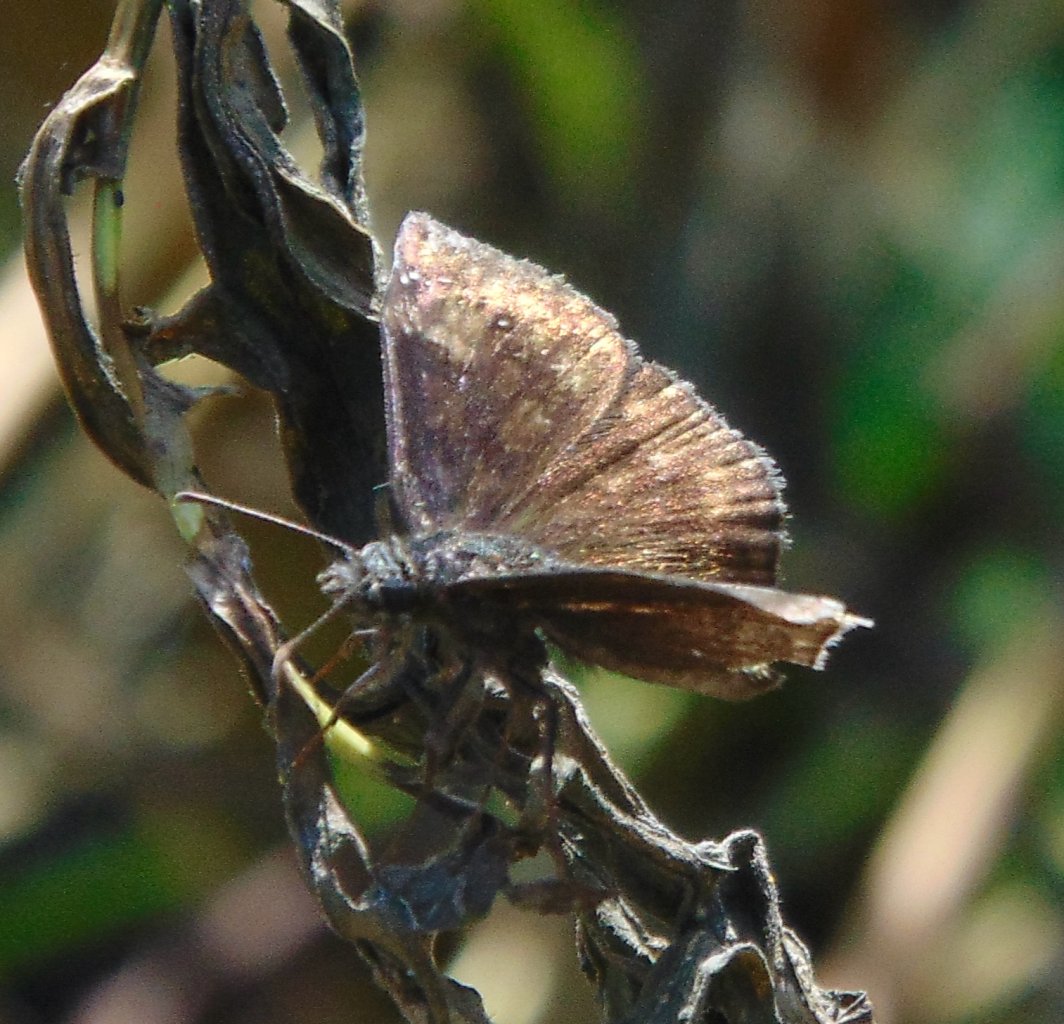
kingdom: Animalia
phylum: Arthropoda
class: Insecta
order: Lepidoptera
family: Hesperiidae
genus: Gesta
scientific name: Gesta
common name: Wild Indigo Duskywing
